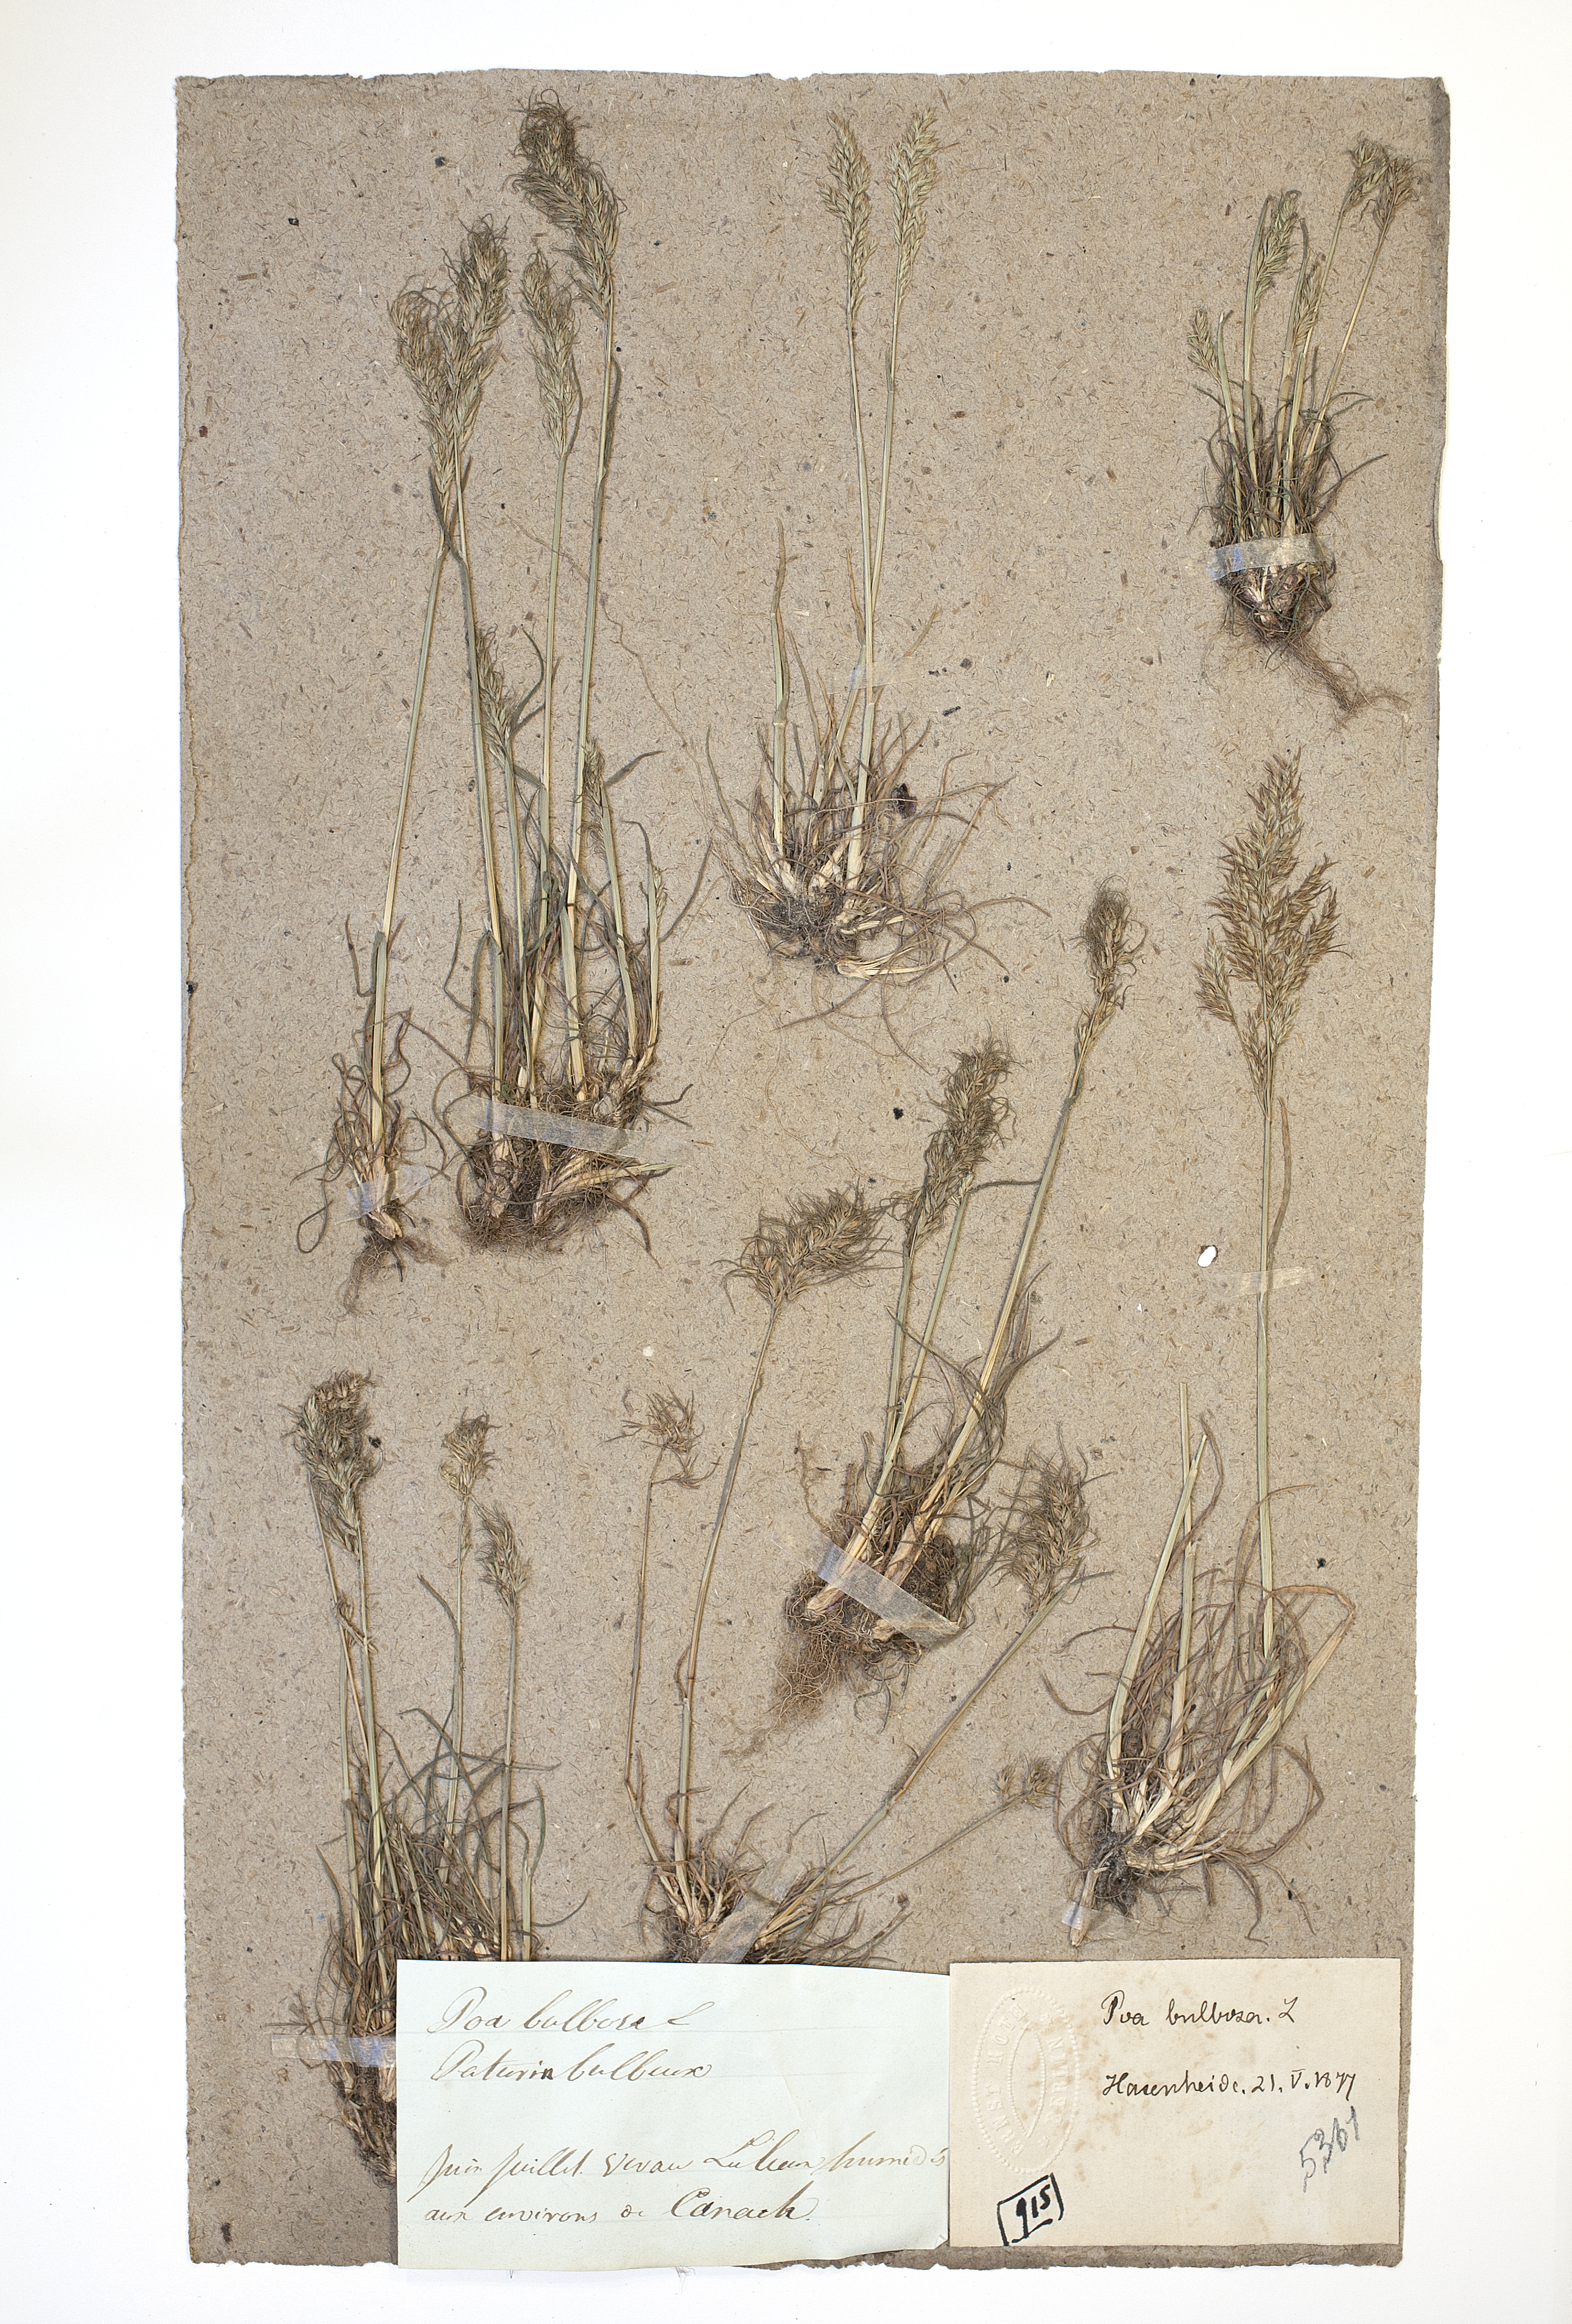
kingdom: Plantae
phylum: Tracheophyta
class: Liliopsida
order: Poales
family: Poaceae
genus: Poa
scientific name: Poa bulbosa
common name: Bulbous bluegrass
